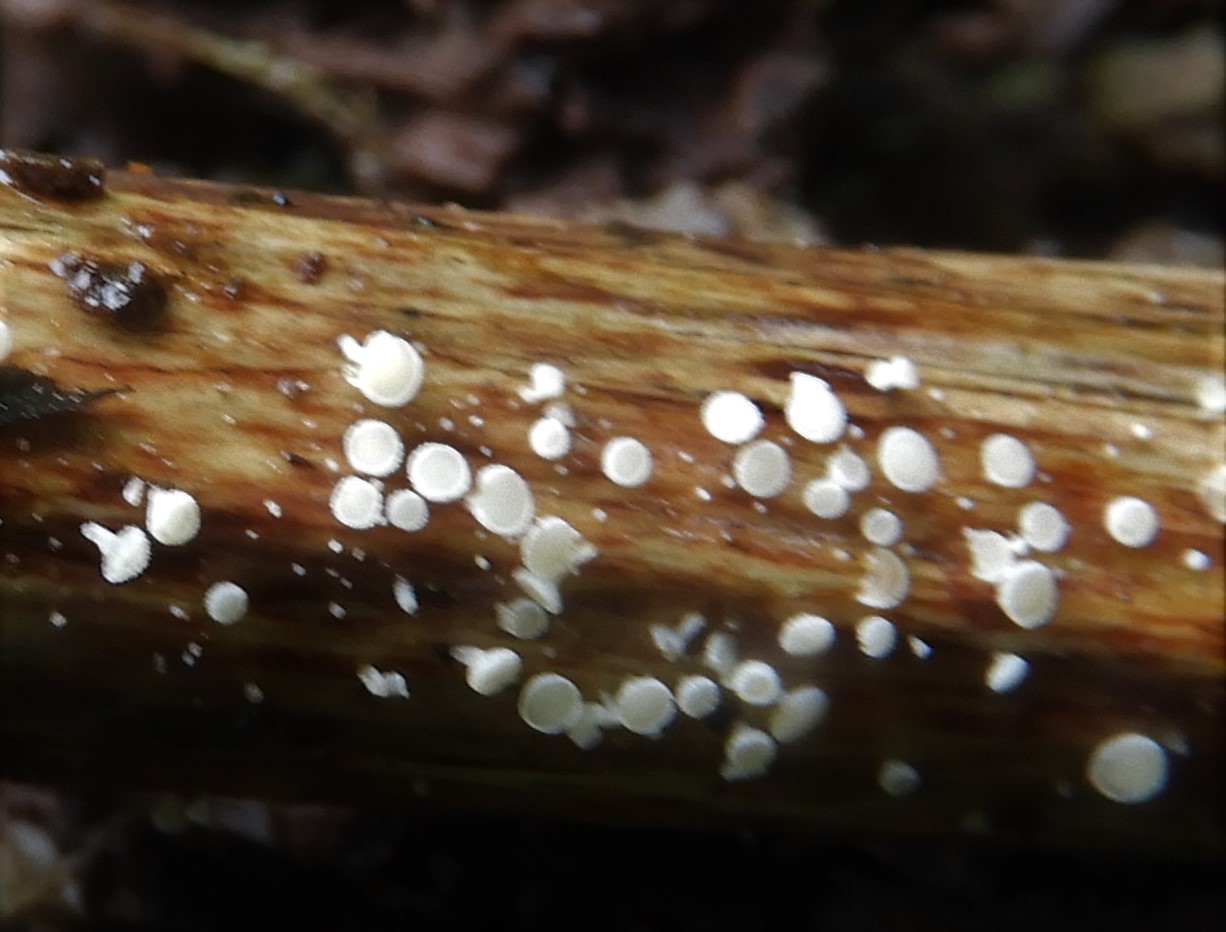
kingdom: Fungi
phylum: Ascomycota
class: Leotiomycetes
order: Helotiales
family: Lachnaceae
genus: Lachnum
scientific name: Lachnum
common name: frynseskive
